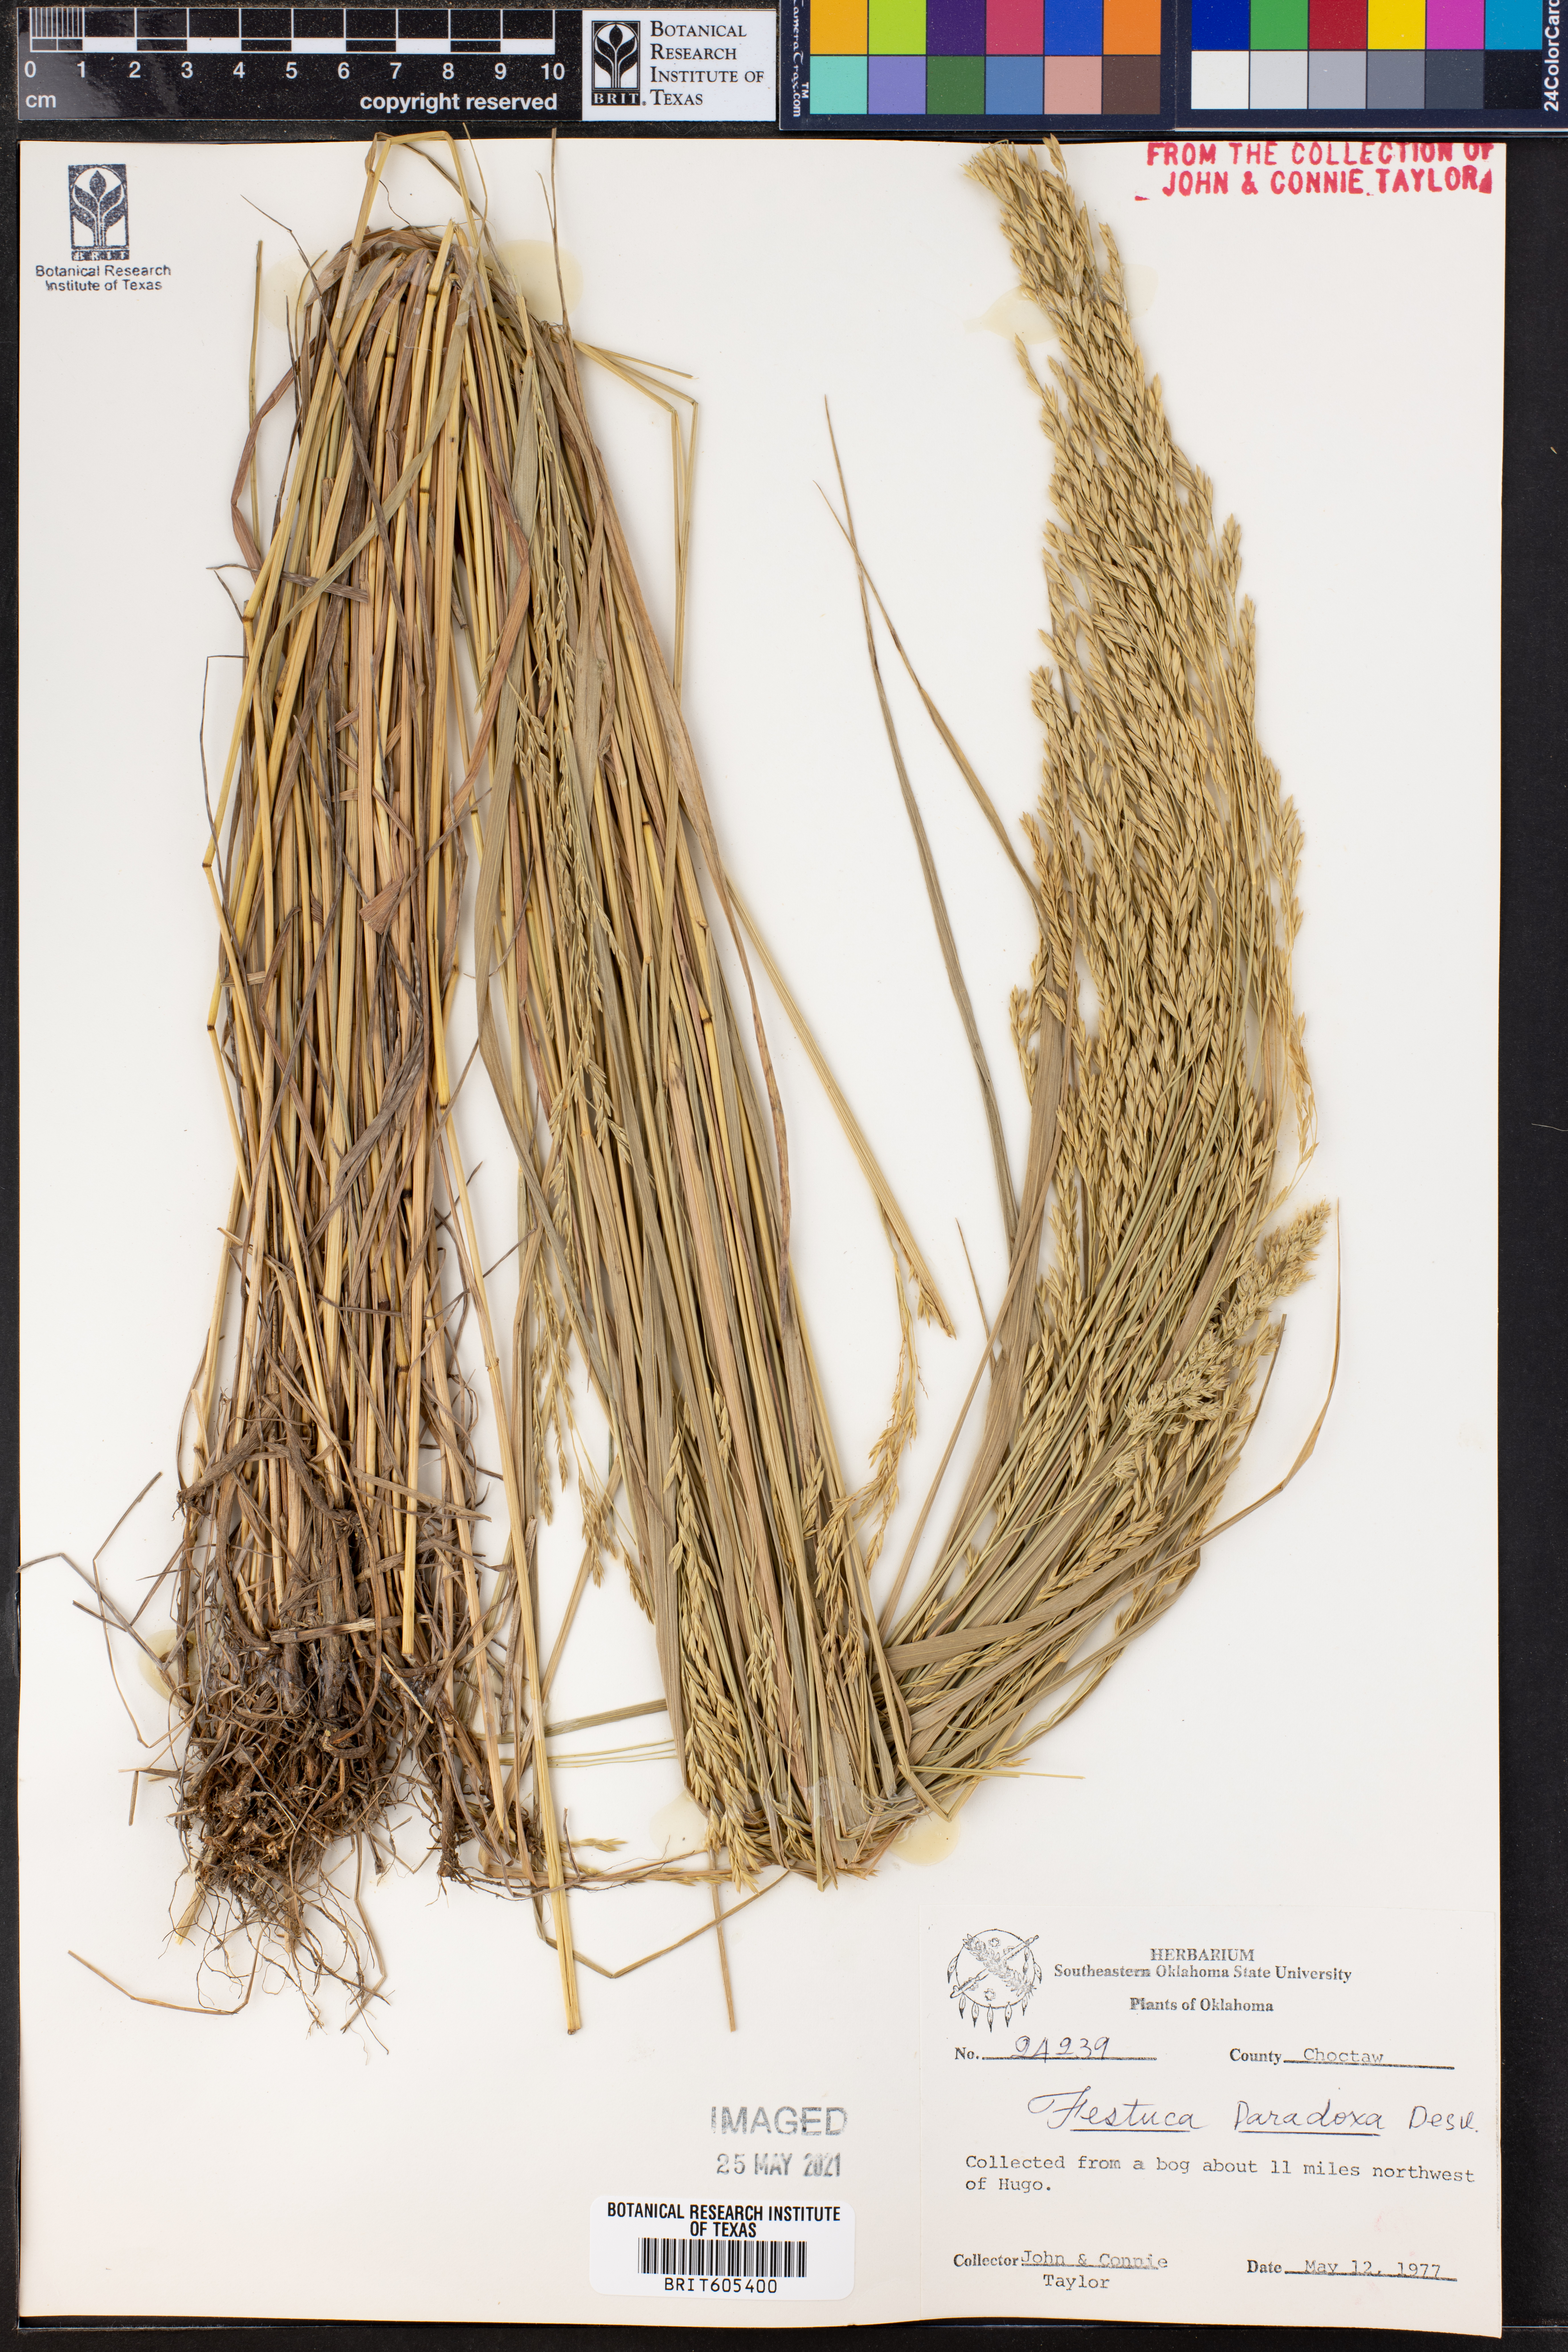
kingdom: Plantae
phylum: Tracheophyta
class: Liliopsida
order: Poales
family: Poaceae
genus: Festuca
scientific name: Festuca paradoxa
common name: Cluster fescue
